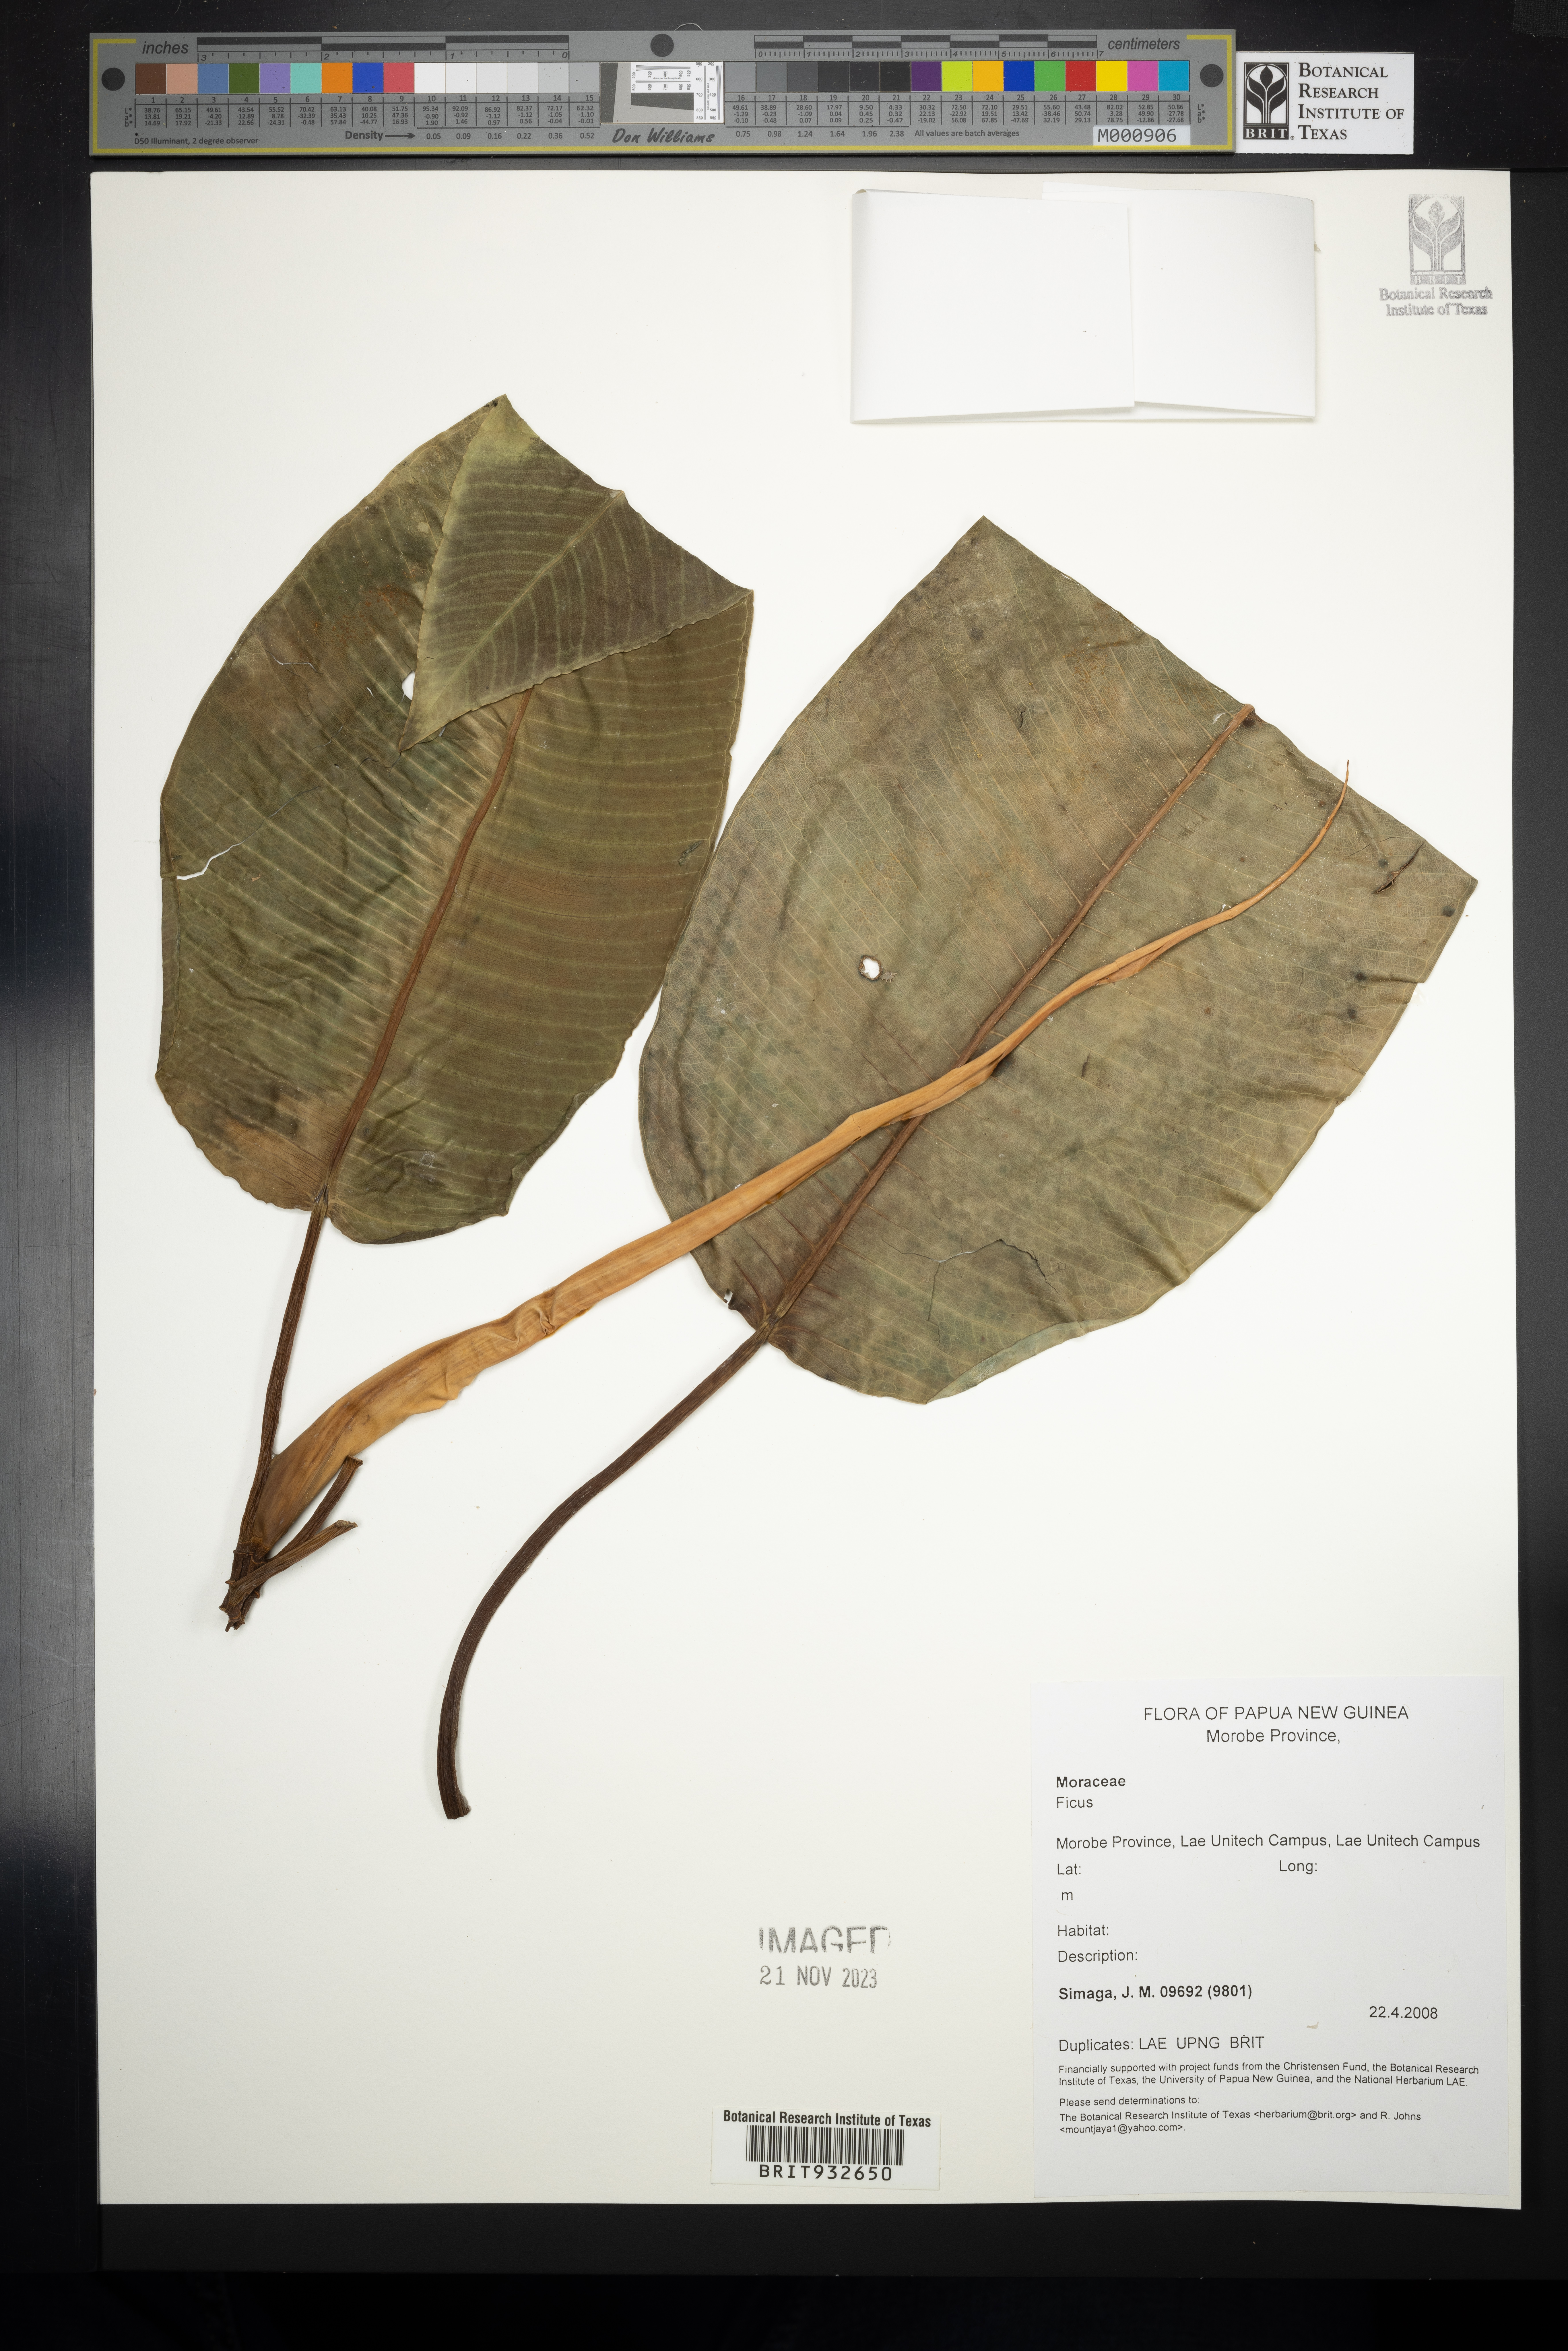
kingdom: Plantae
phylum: Tracheophyta
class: Magnoliopsida
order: Rosales
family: Moraceae
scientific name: Moraceae
